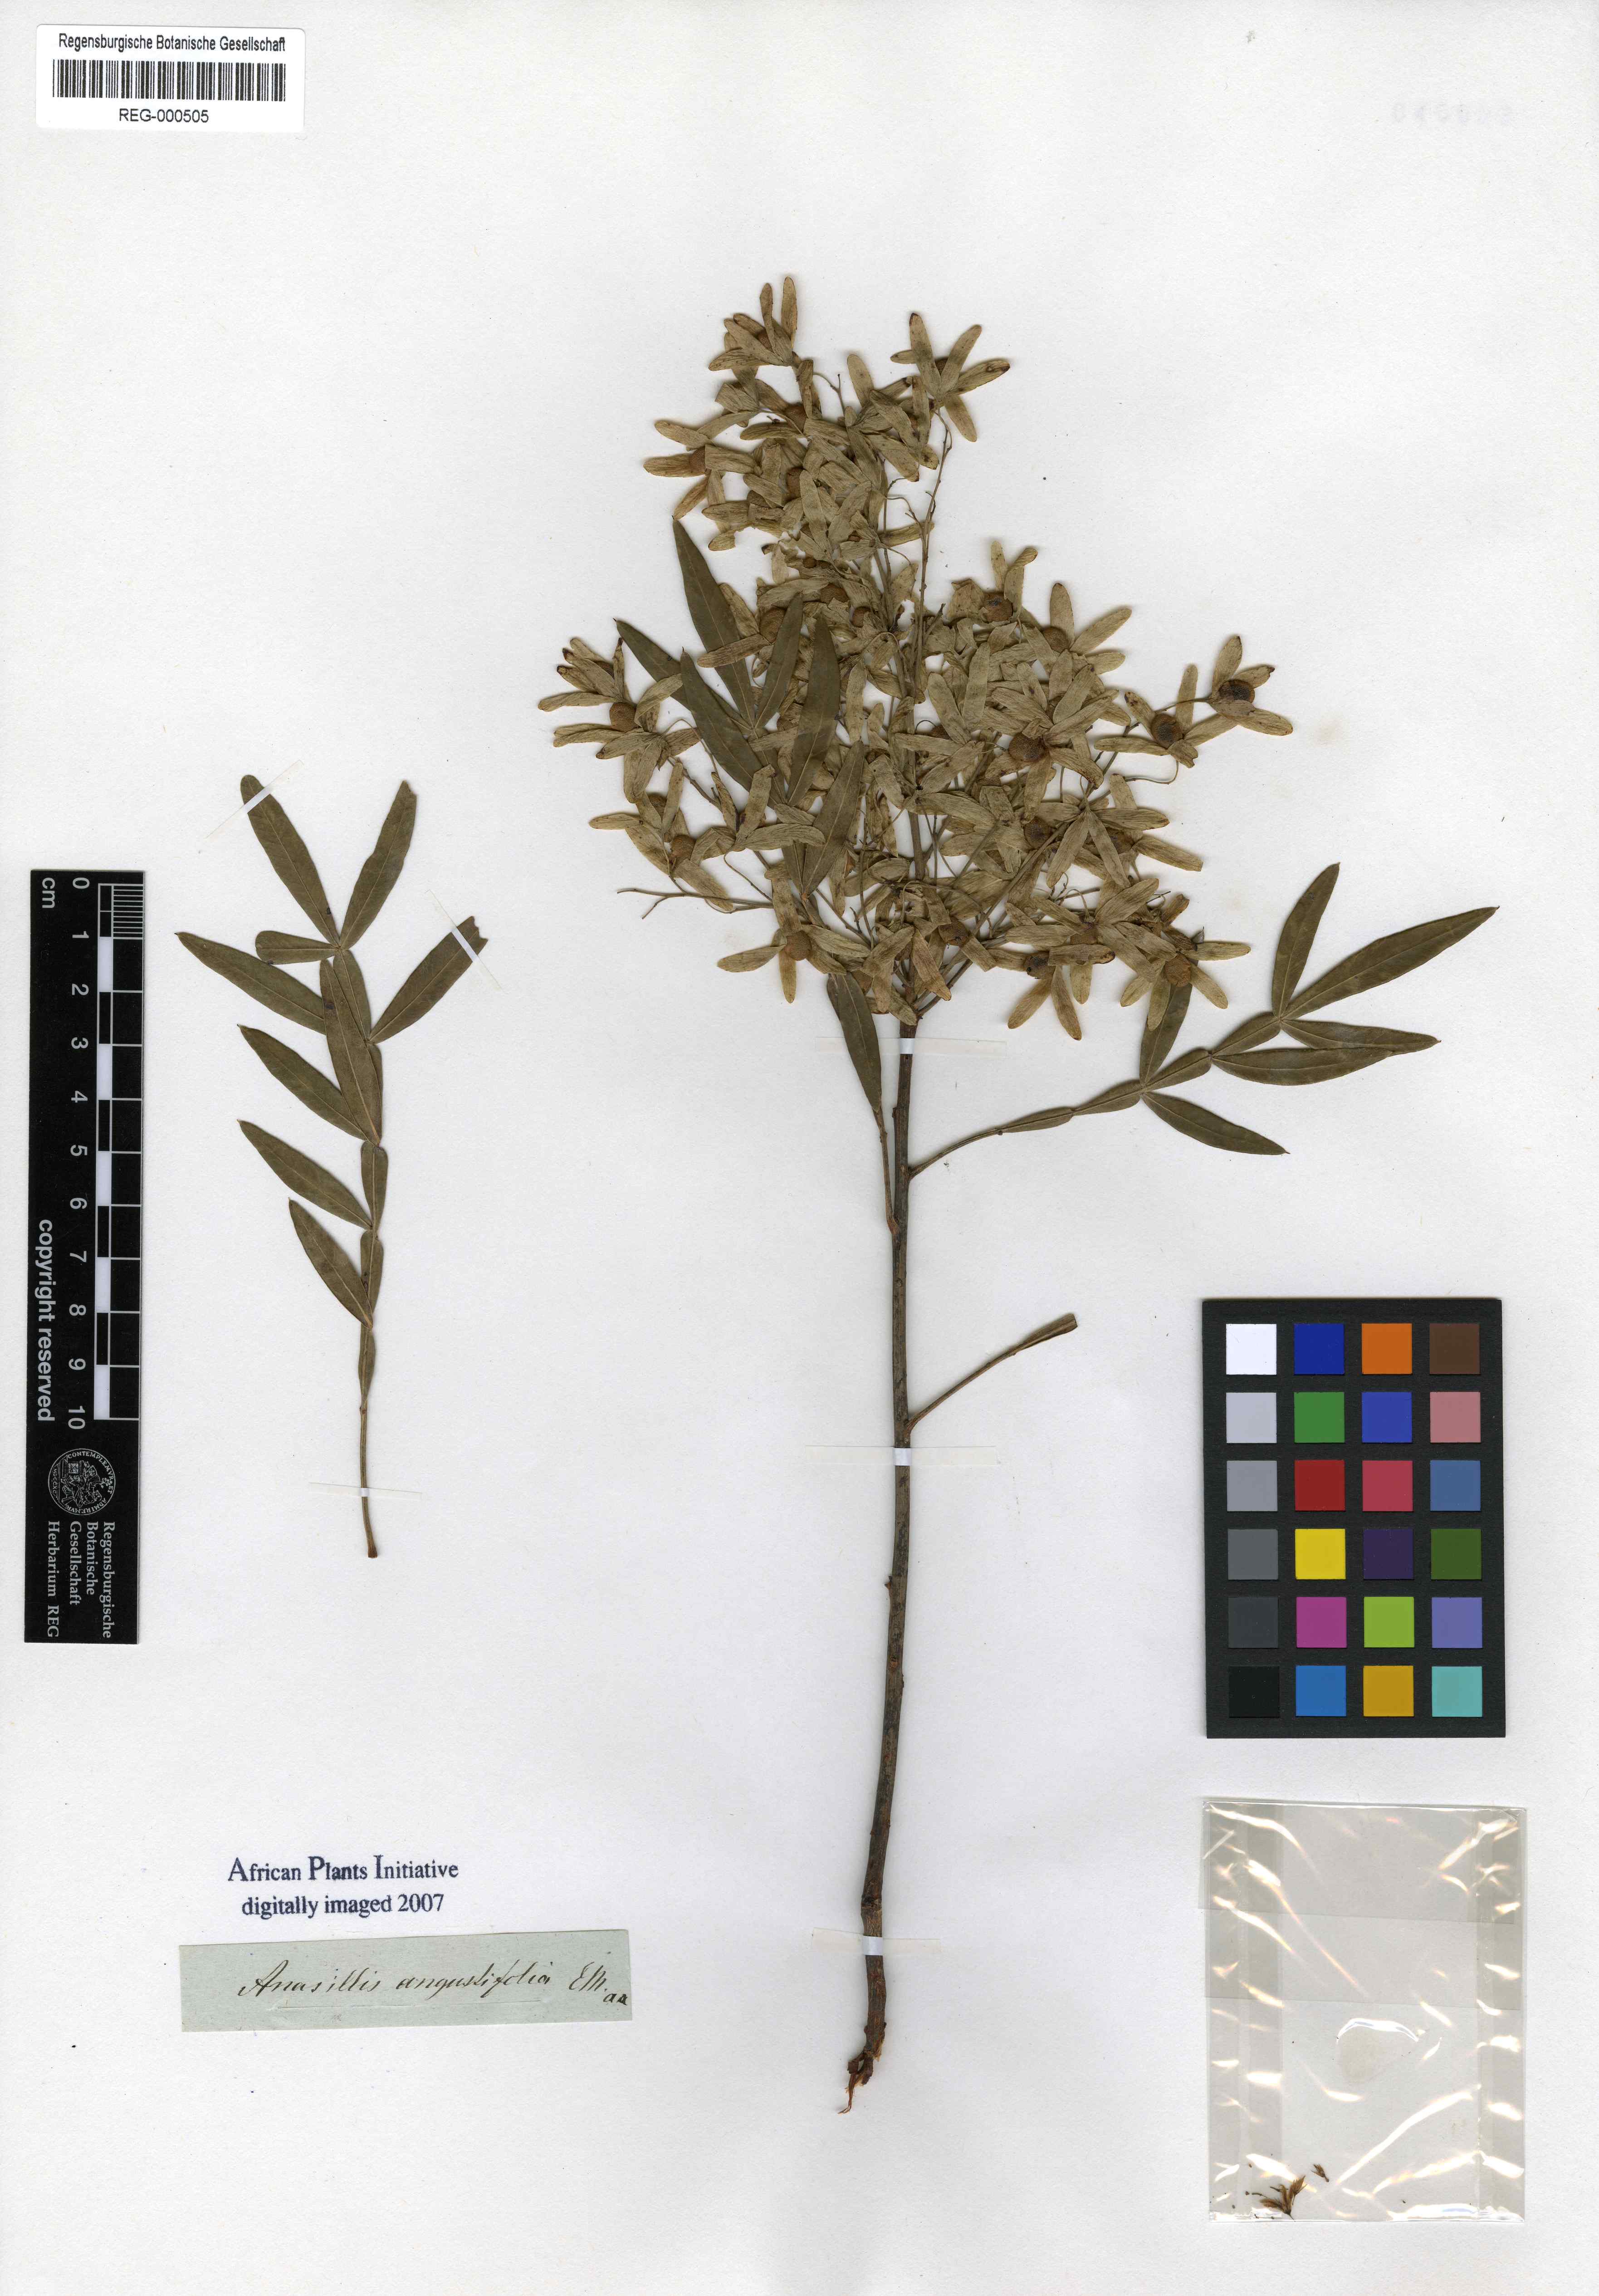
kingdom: Plantae
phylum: Tracheophyta
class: Magnoliopsida
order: Sapindales
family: Anacardiaceae
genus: Loxostylis
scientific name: Loxostylis alata
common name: Wild peppertree
